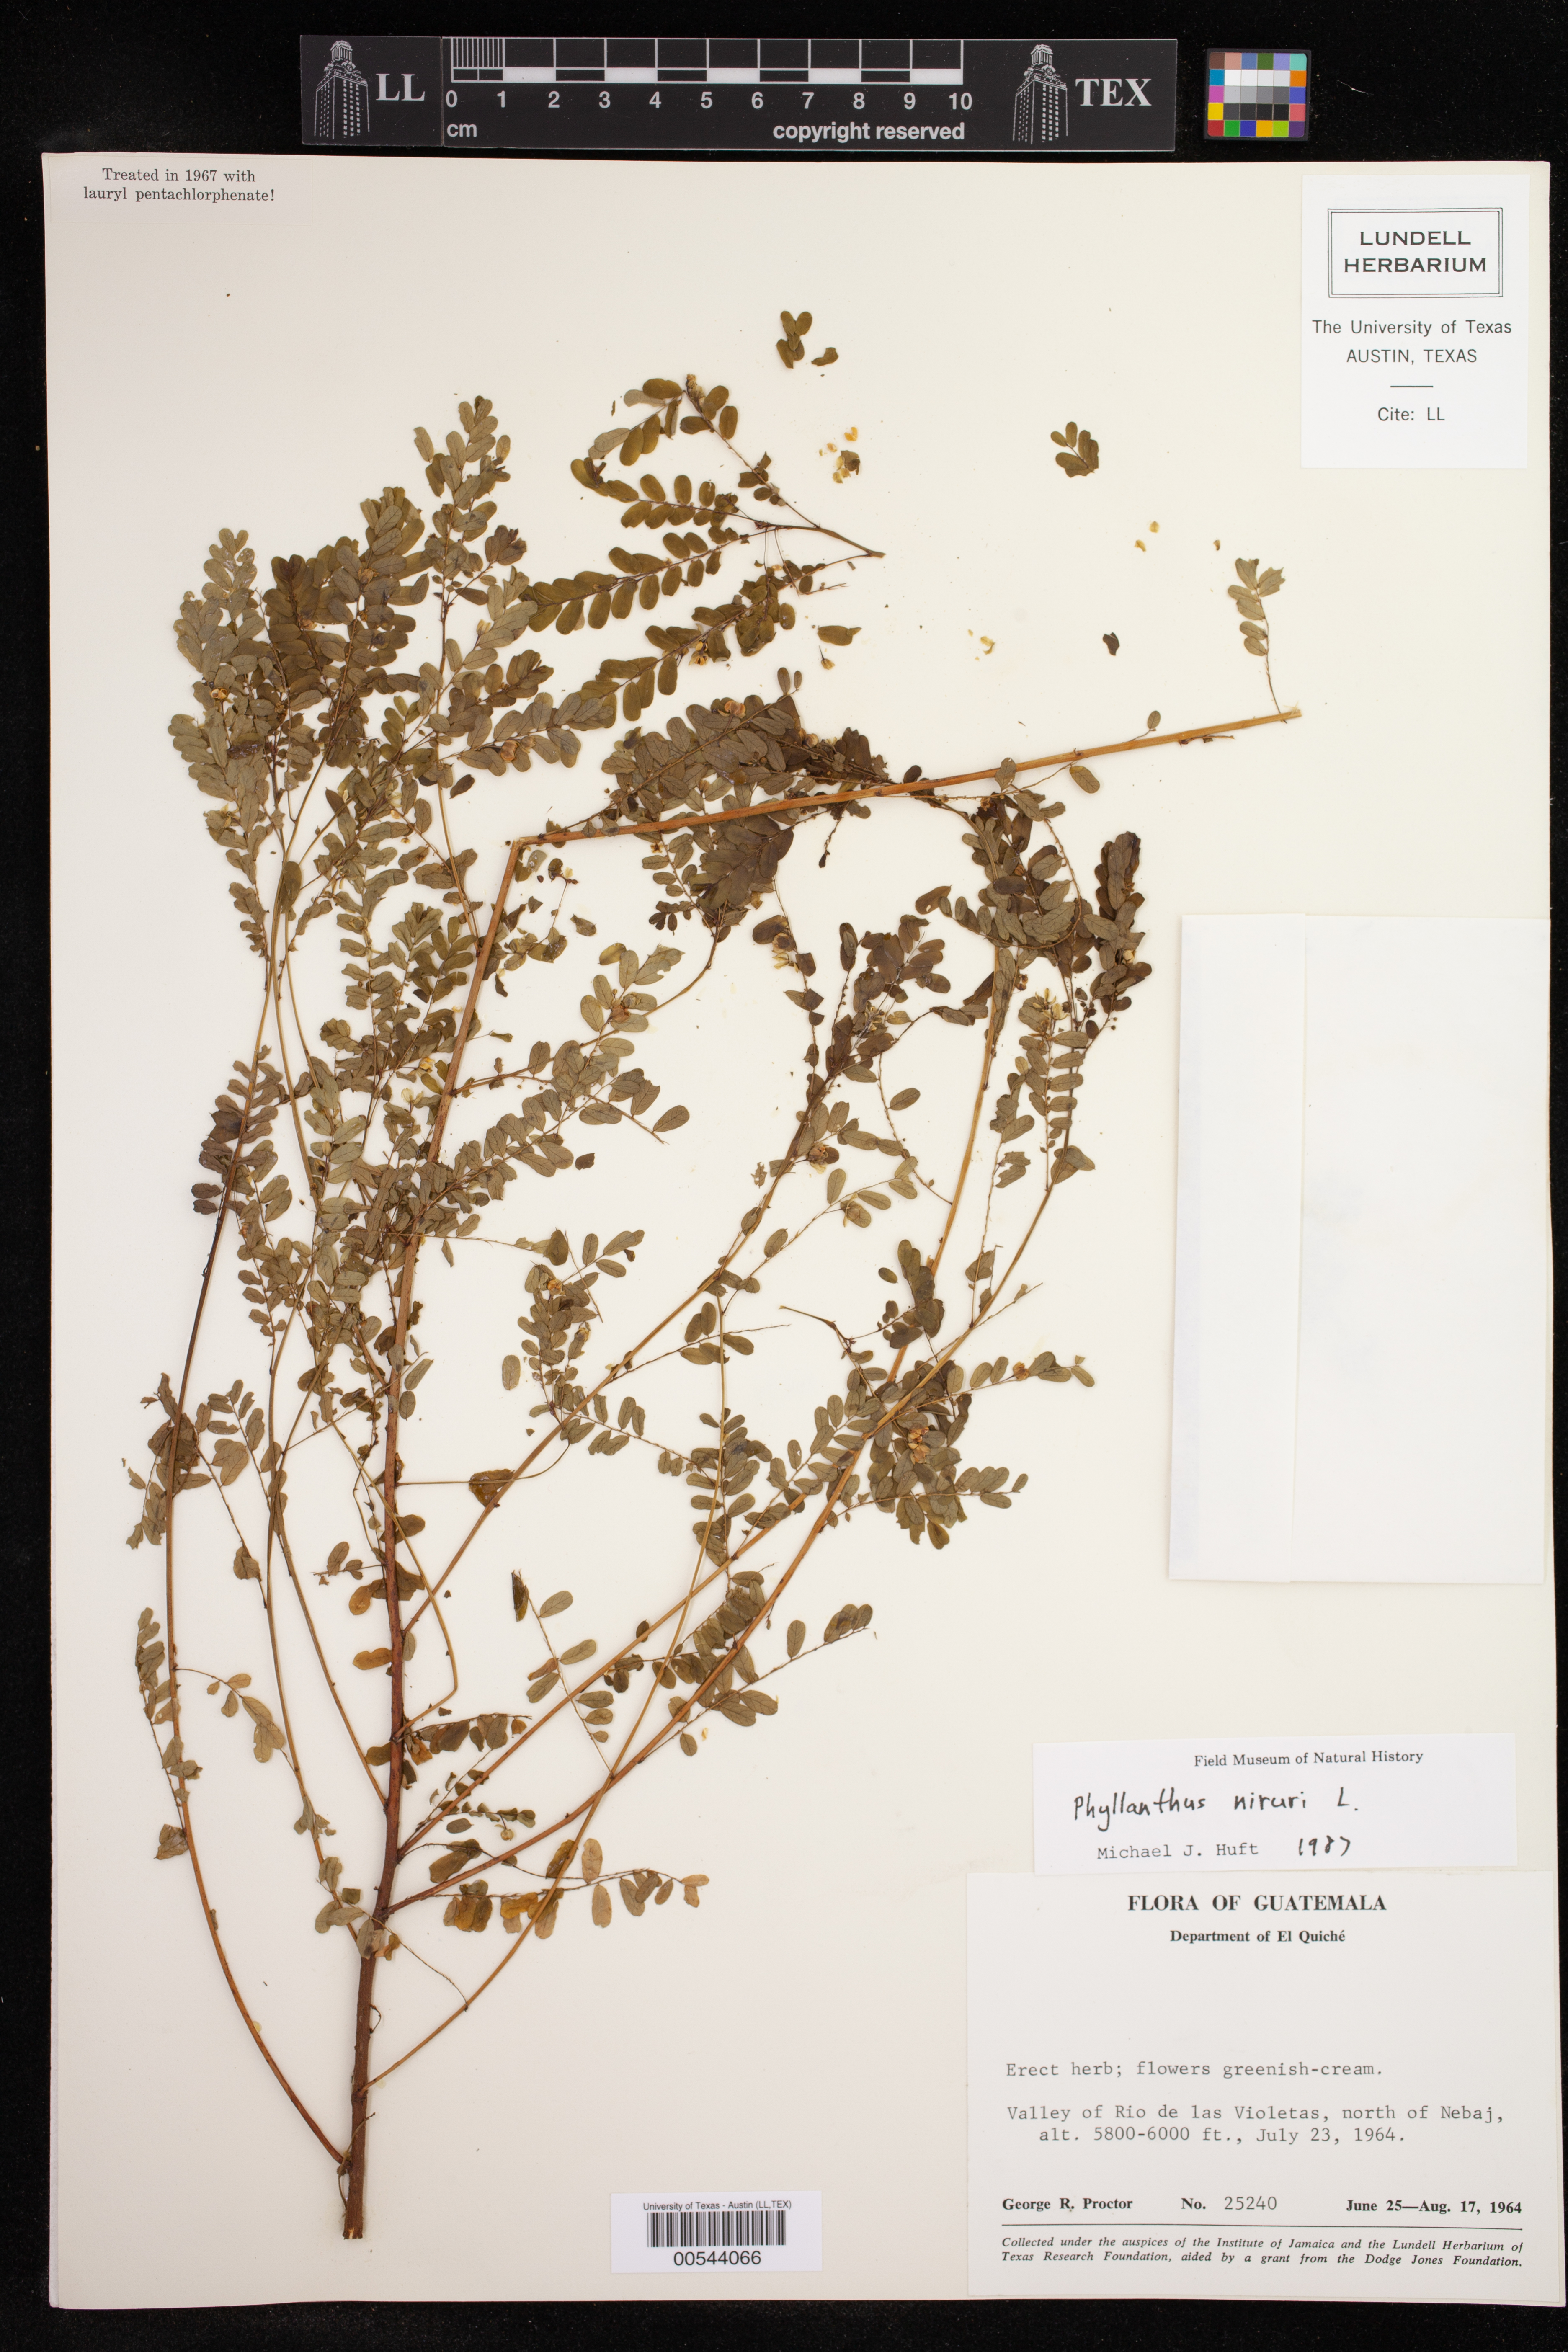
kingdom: Plantae
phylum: Tracheophyta
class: Magnoliopsida
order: Malpighiales
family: Phyllanthaceae
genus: Phyllanthus
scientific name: Phyllanthus niruri
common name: Niruri
